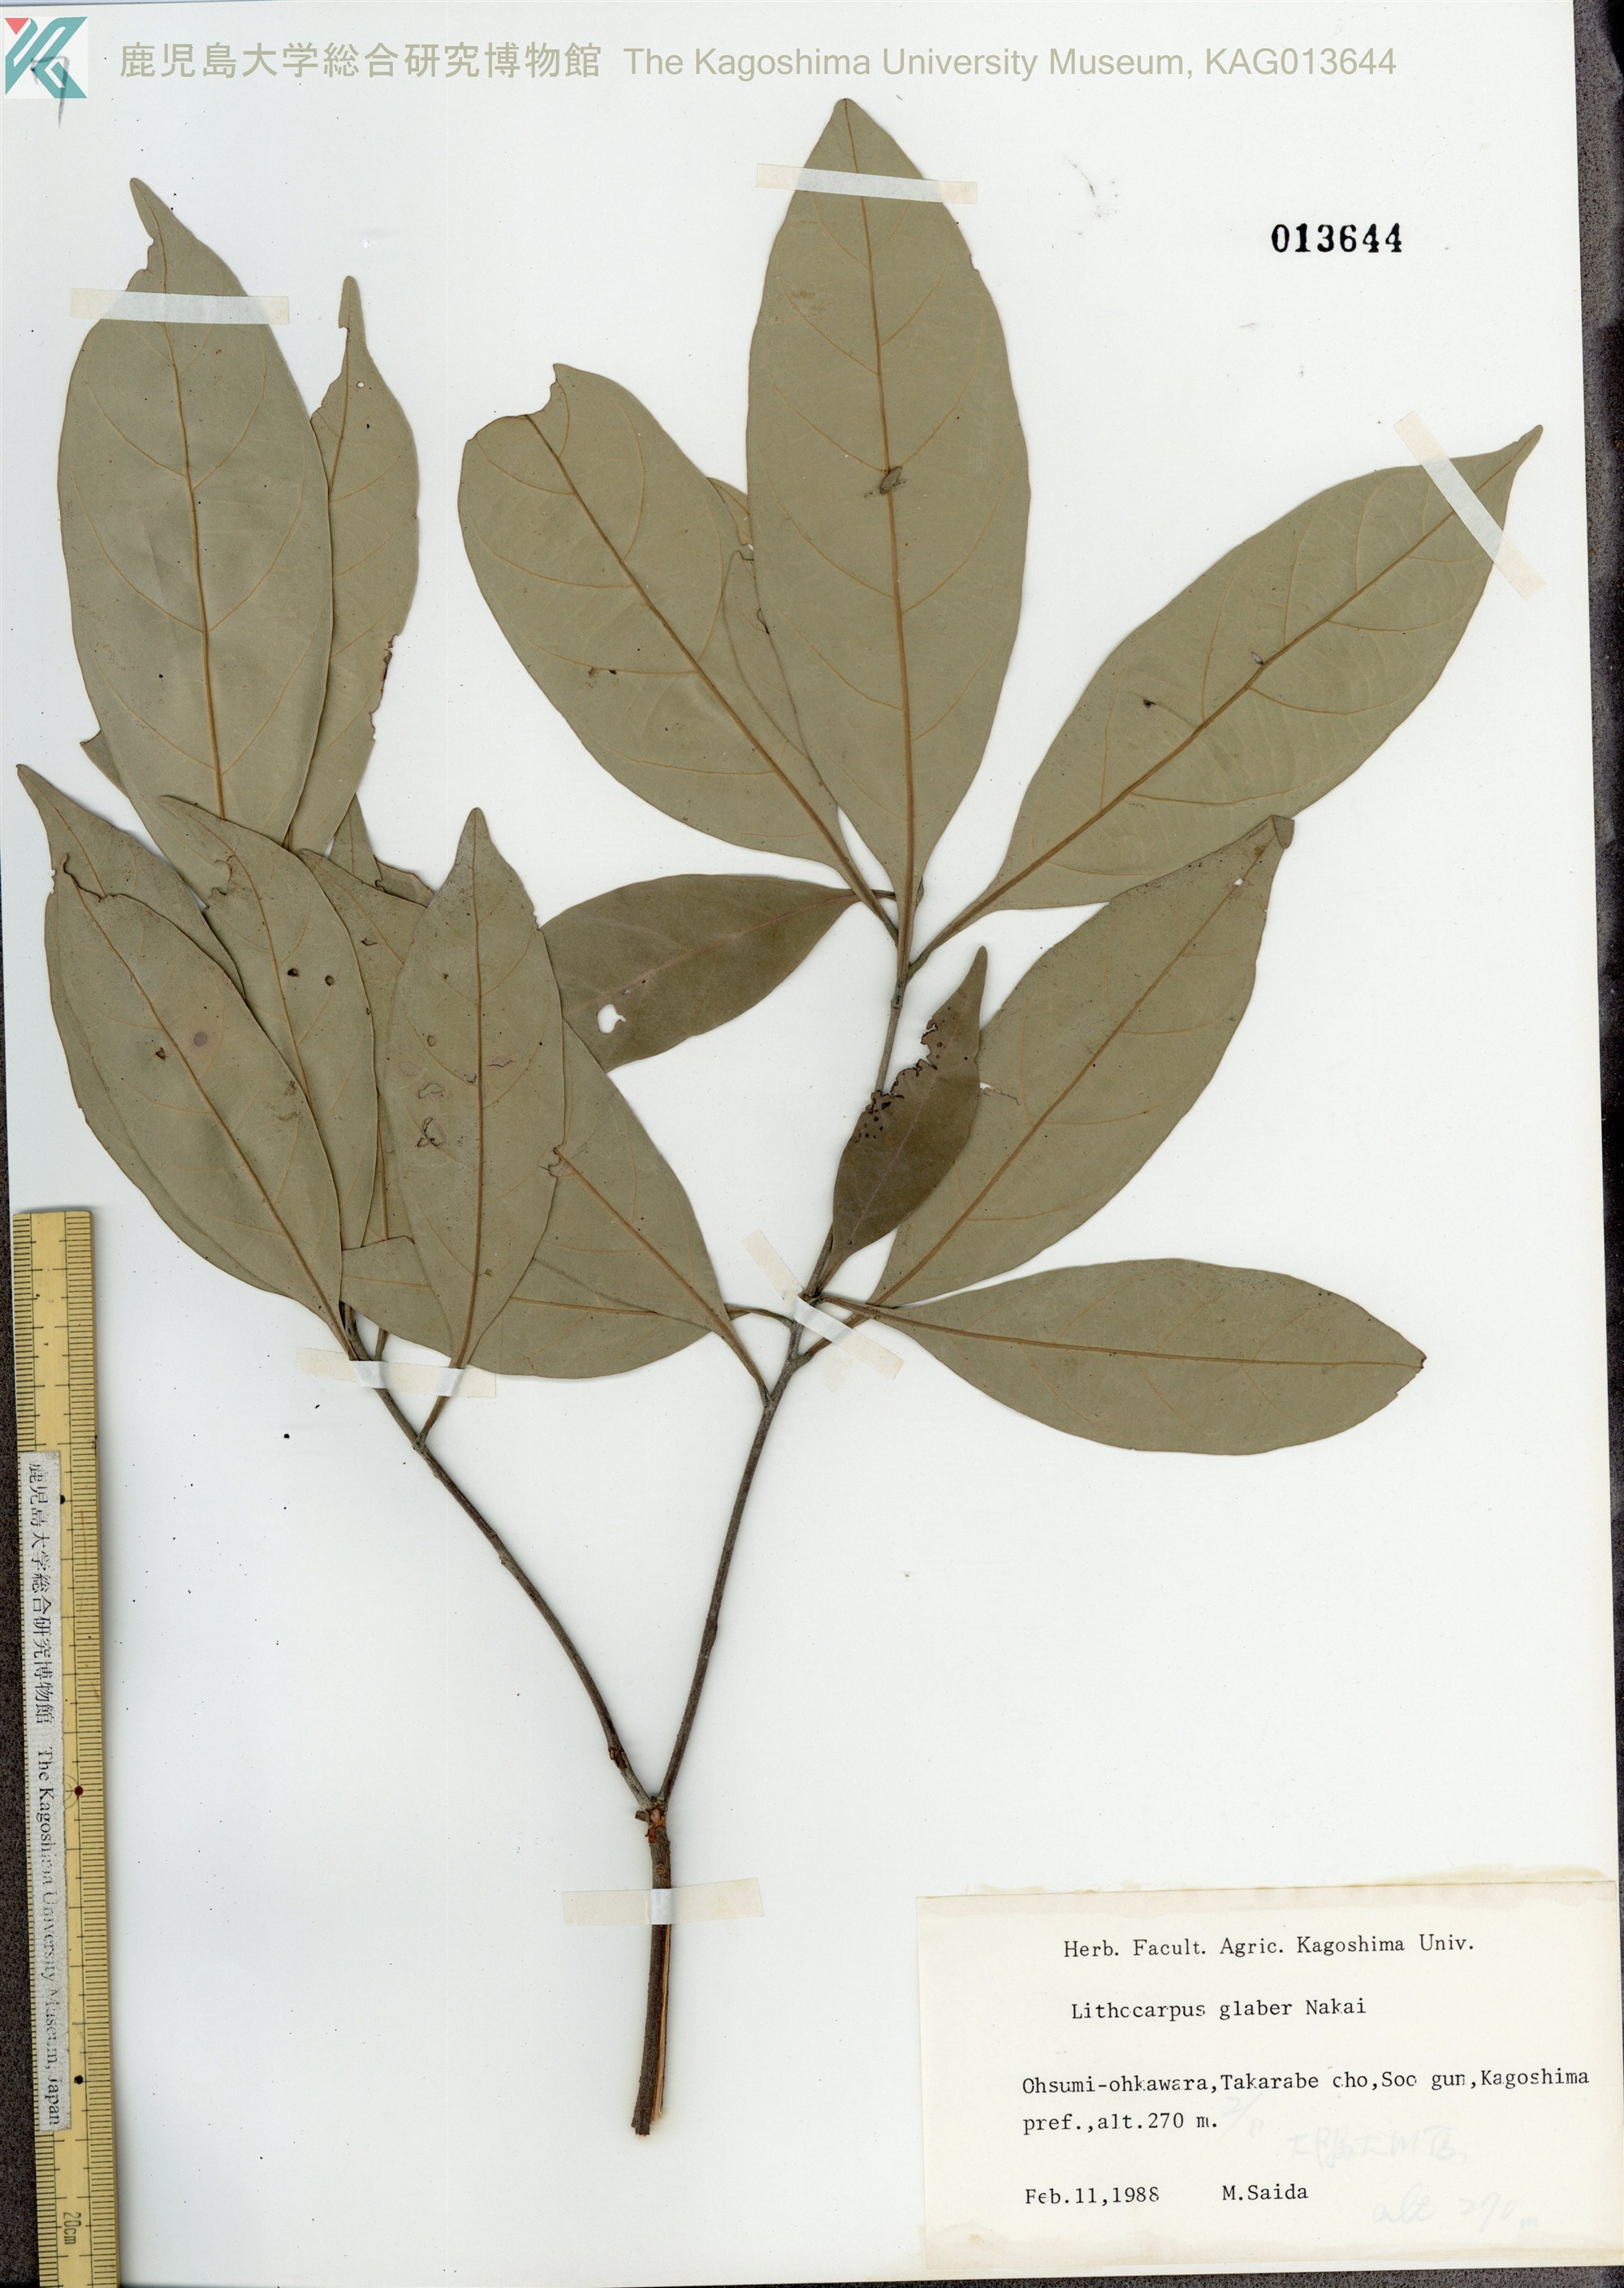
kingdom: Plantae
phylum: Tracheophyta
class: Magnoliopsida
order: Fagales
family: Fagaceae
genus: Lithocarpus
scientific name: Lithocarpus glaber
